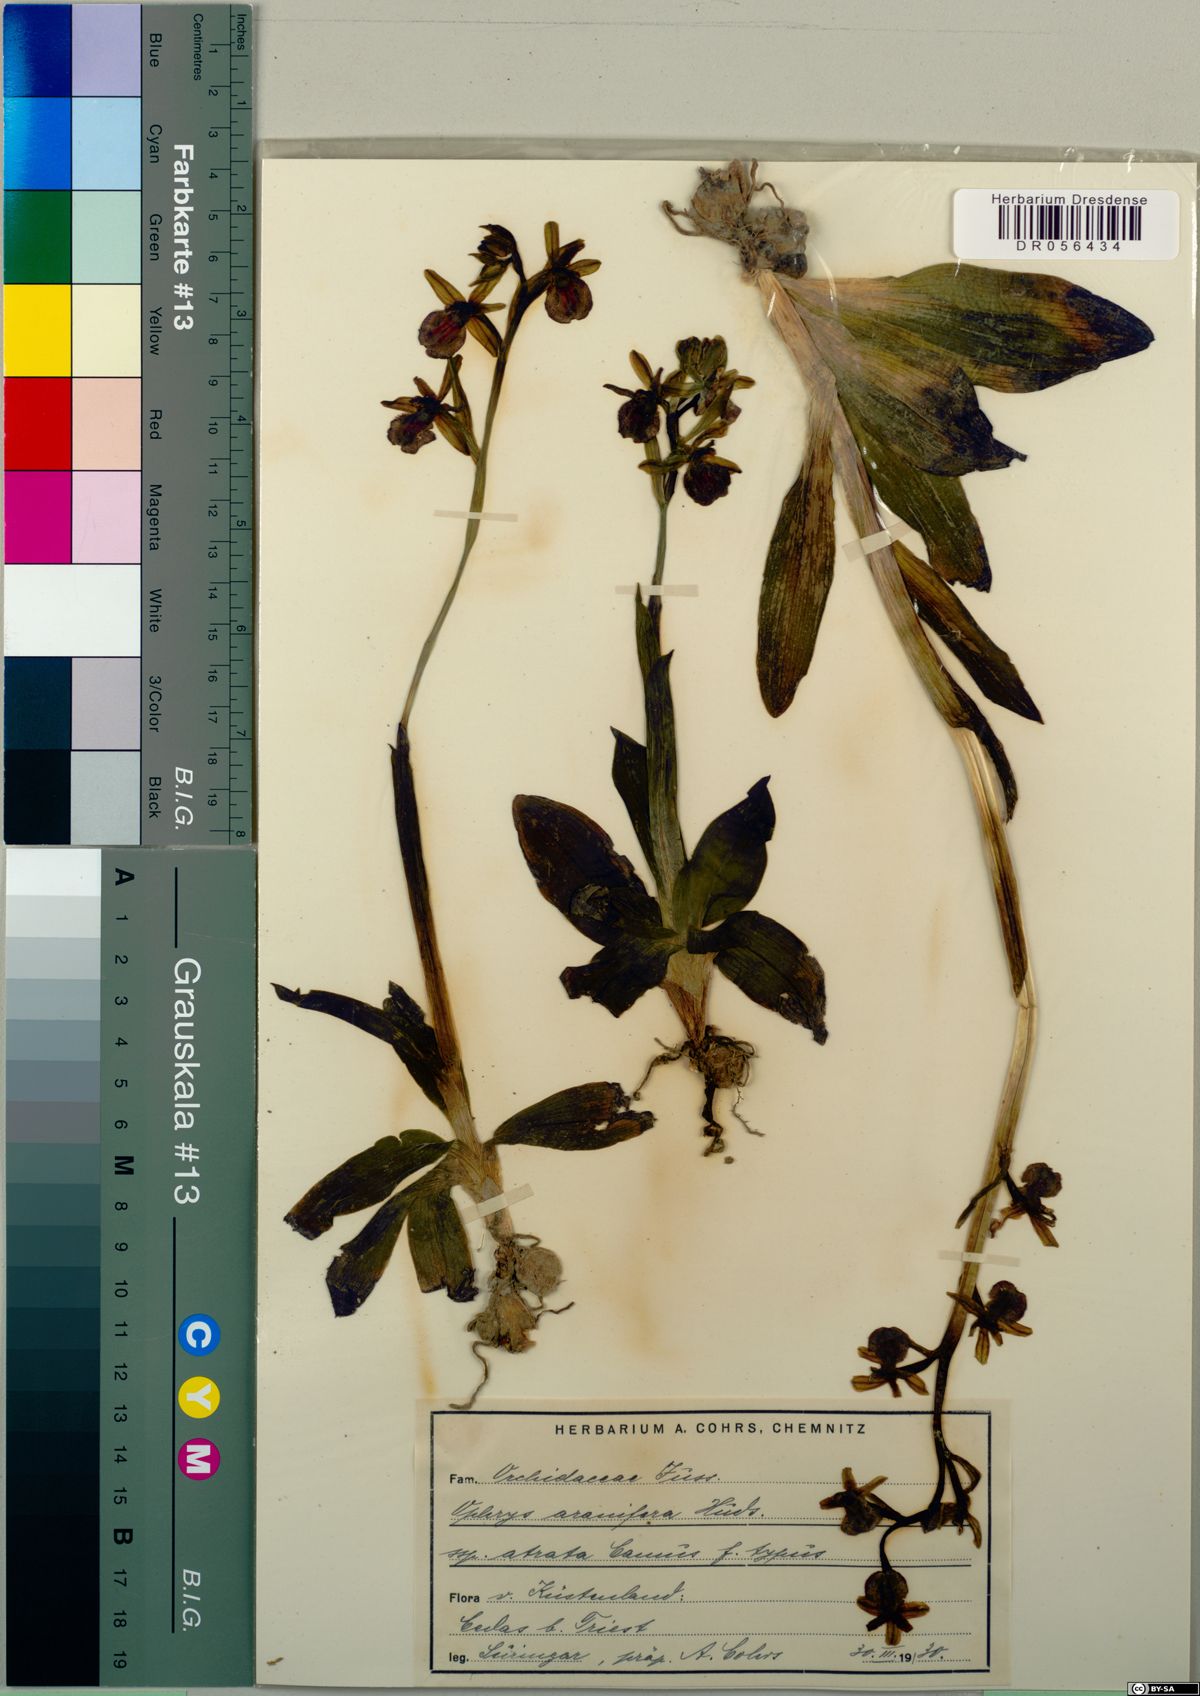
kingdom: Plantae
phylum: Tracheophyta
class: Liliopsida
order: Asparagales
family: Orchidaceae
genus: Ophrys
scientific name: Ophrys sphegodes
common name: Early spider-orchid
